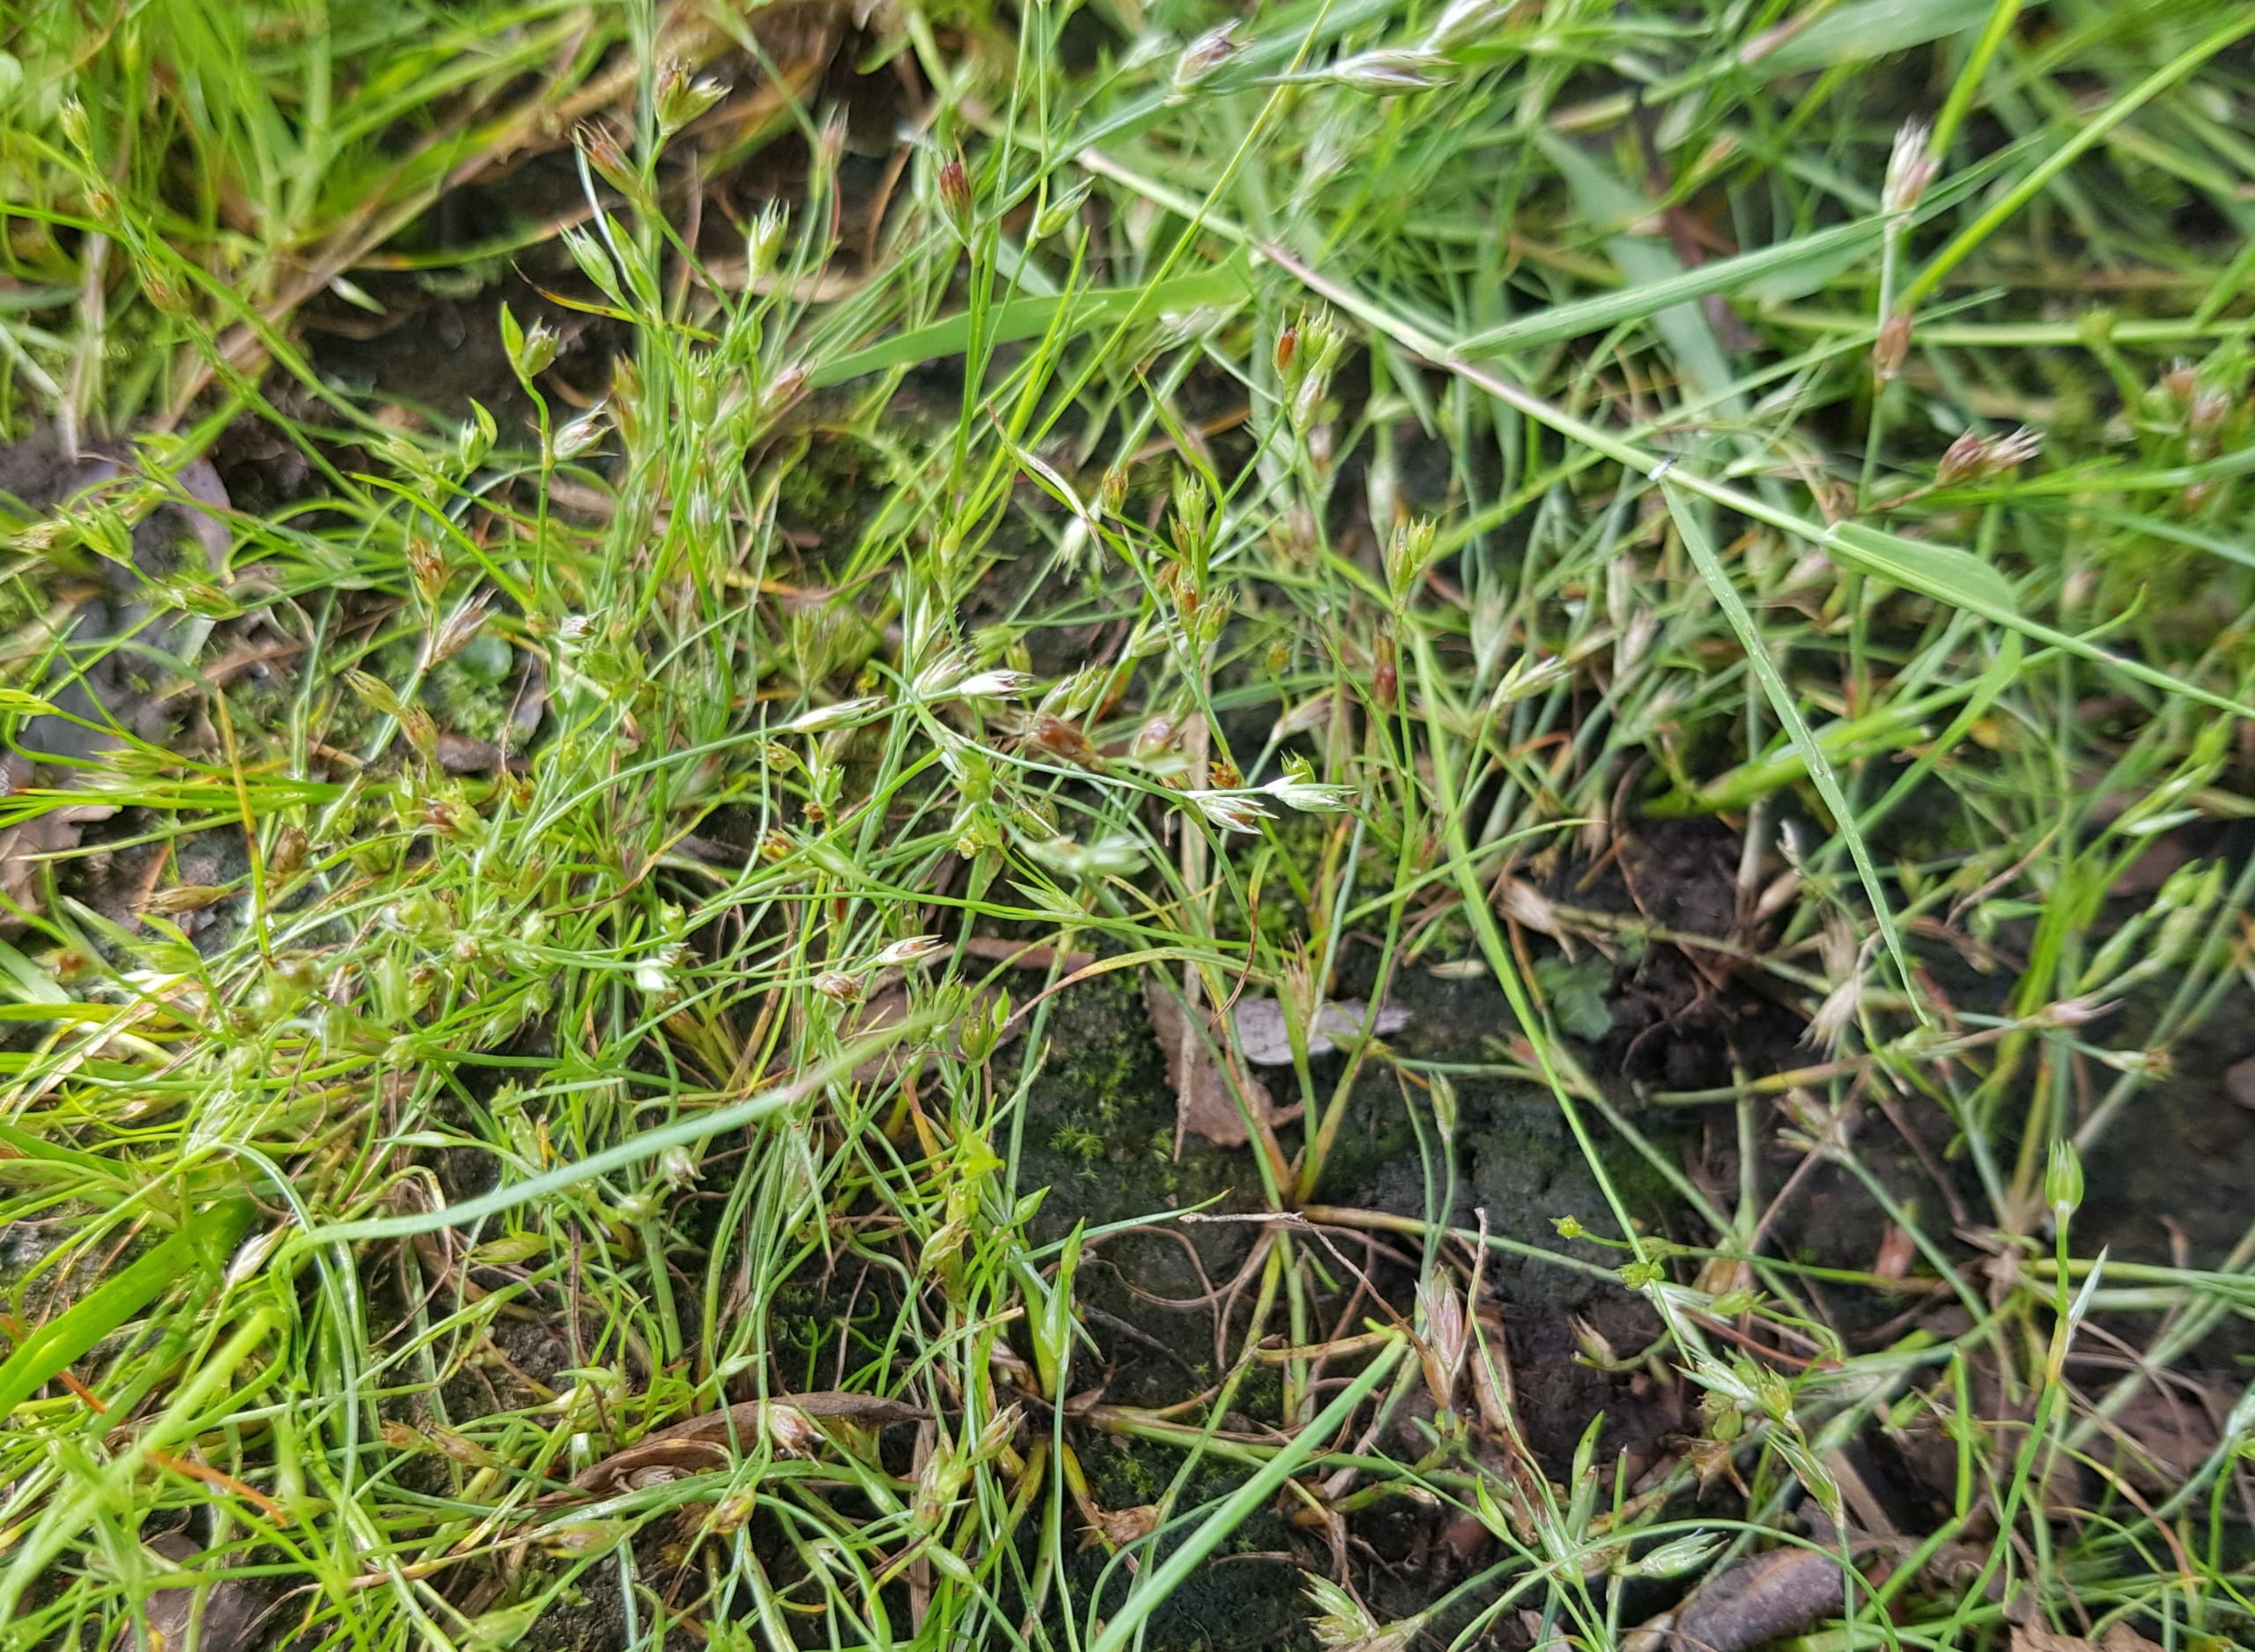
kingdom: Plantae
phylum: Tracheophyta
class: Liliopsida
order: Poales
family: Juncaceae
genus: Juncus
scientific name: Juncus bufonius
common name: Tudse-siv
